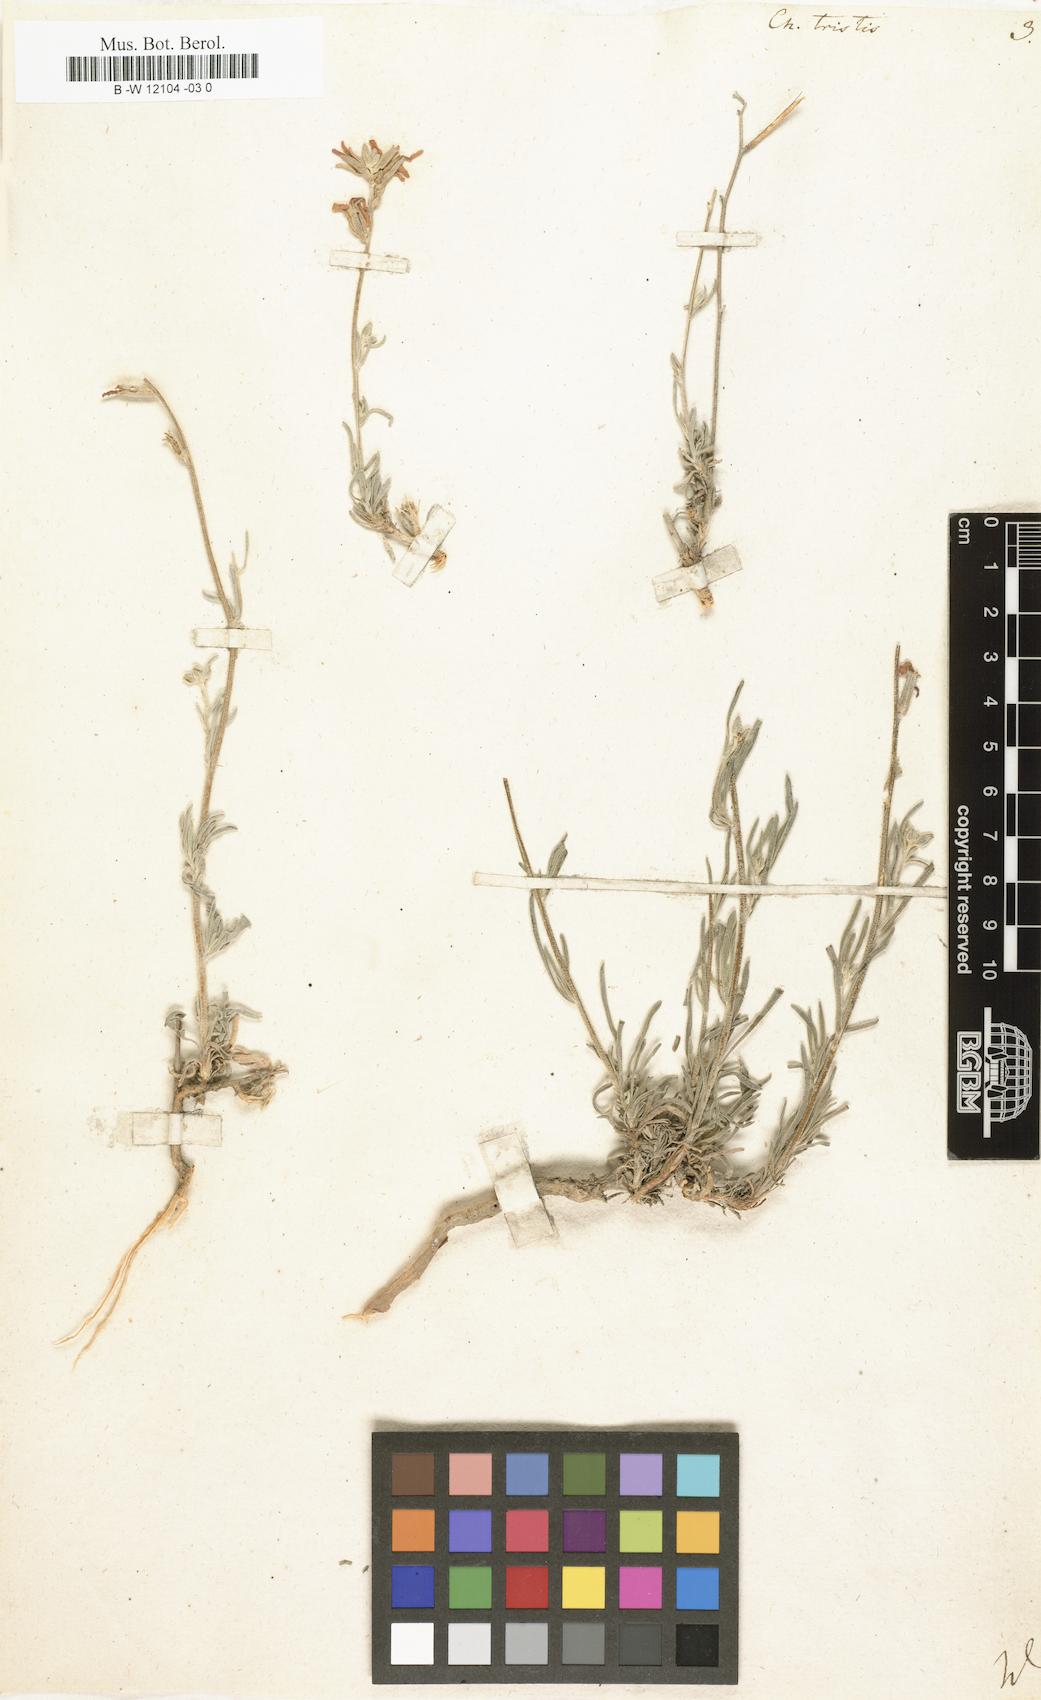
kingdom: Plantae
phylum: Tracheophyta
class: Magnoliopsida
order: Brassicales
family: Brassicaceae
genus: Matthiola
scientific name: Matthiola
